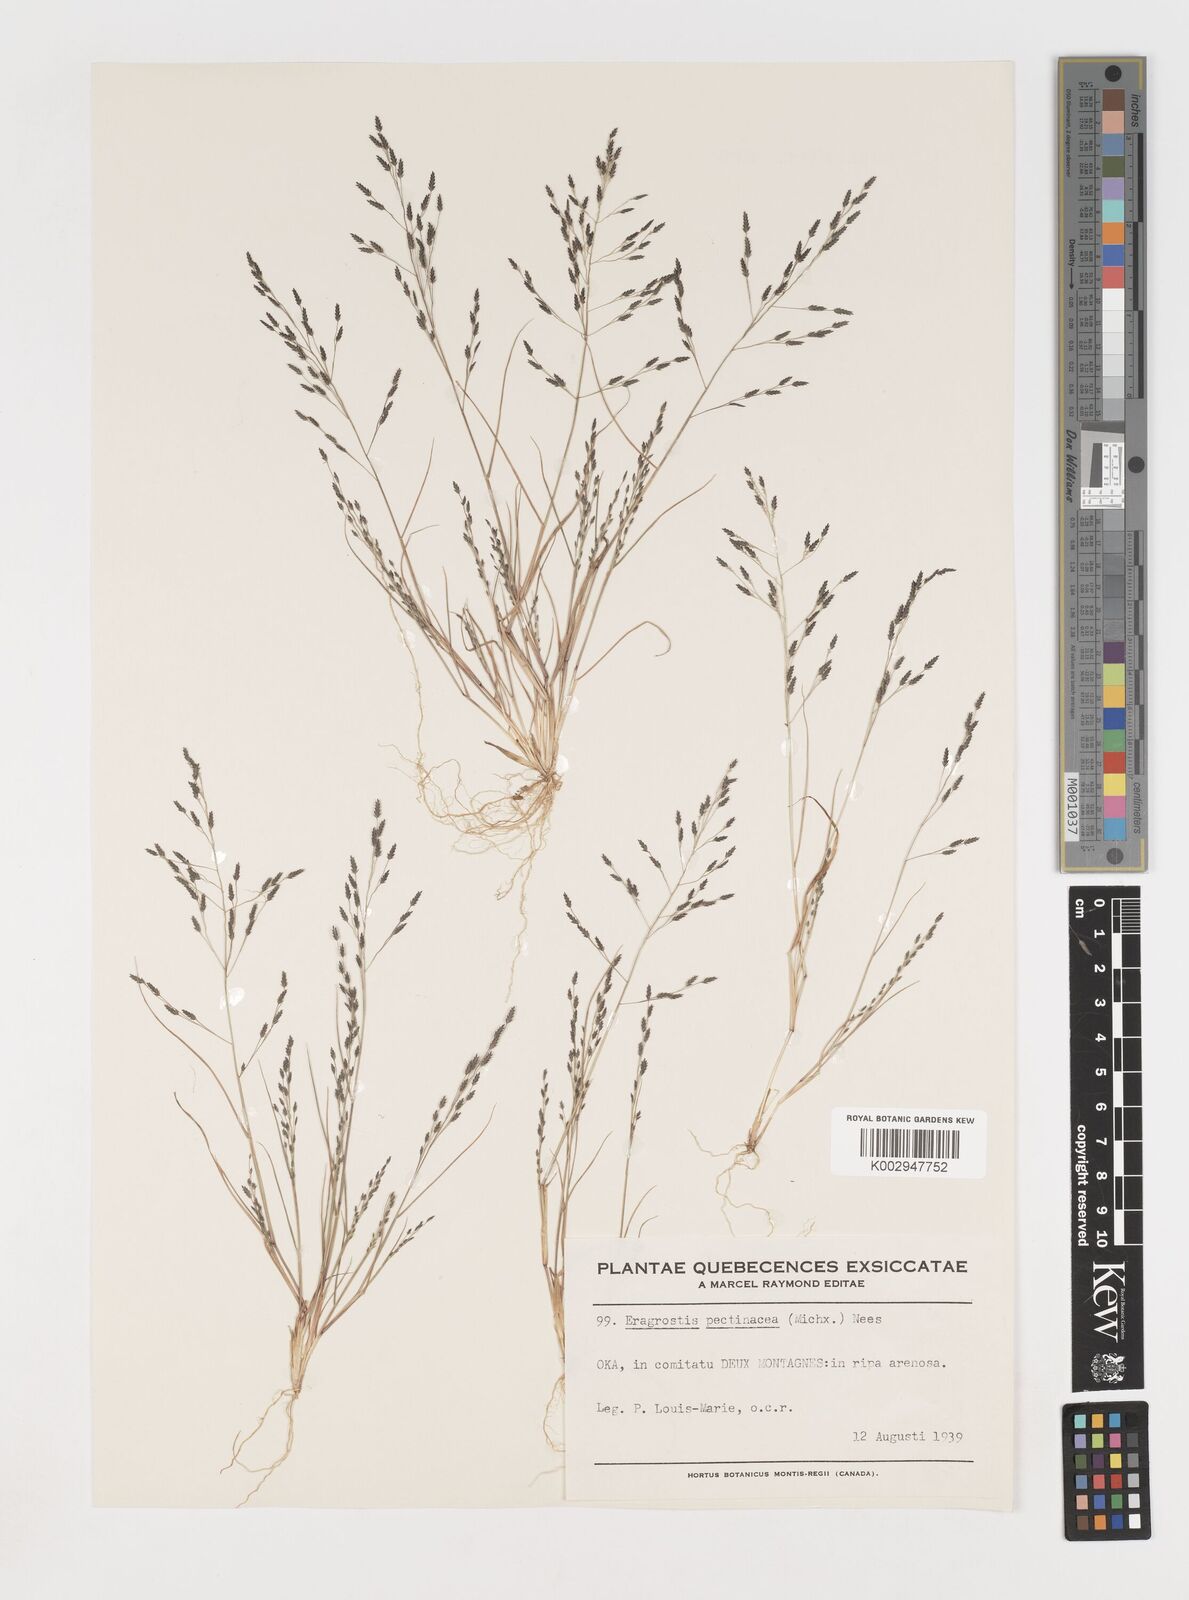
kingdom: Plantae
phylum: Tracheophyta
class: Liliopsida
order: Poales
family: Poaceae
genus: Eragrostis
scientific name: Eragrostis pectinacea
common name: Tufted lovegrass
